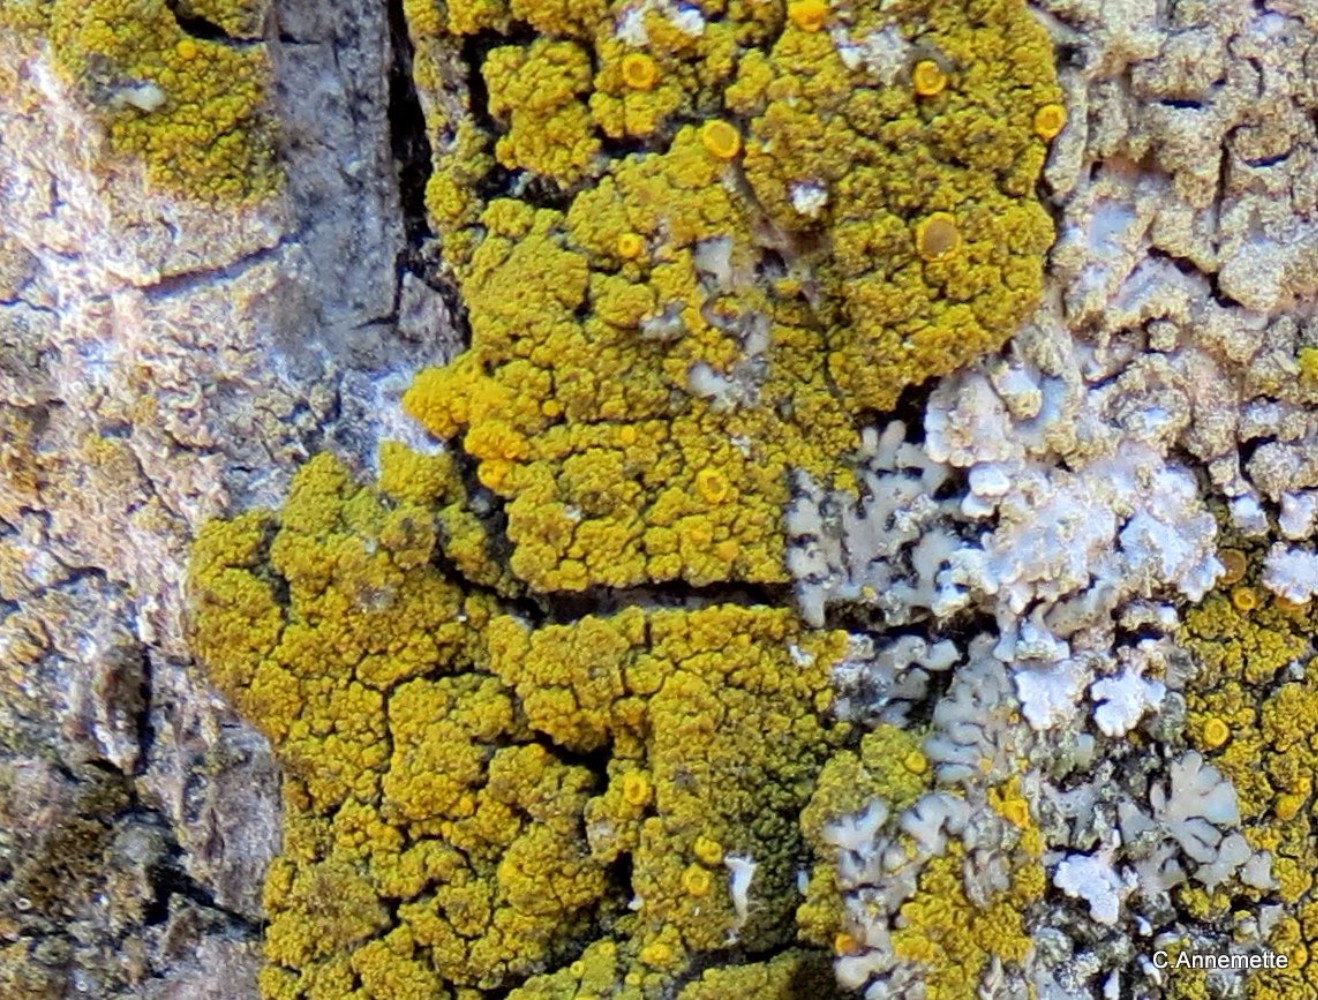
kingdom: Fungi
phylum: Ascomycota
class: Candelariomycetes
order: Candelariales
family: Candelariaceae
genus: Candelariella
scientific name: Candelariella vitellina
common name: almindelig æggeblommelav
